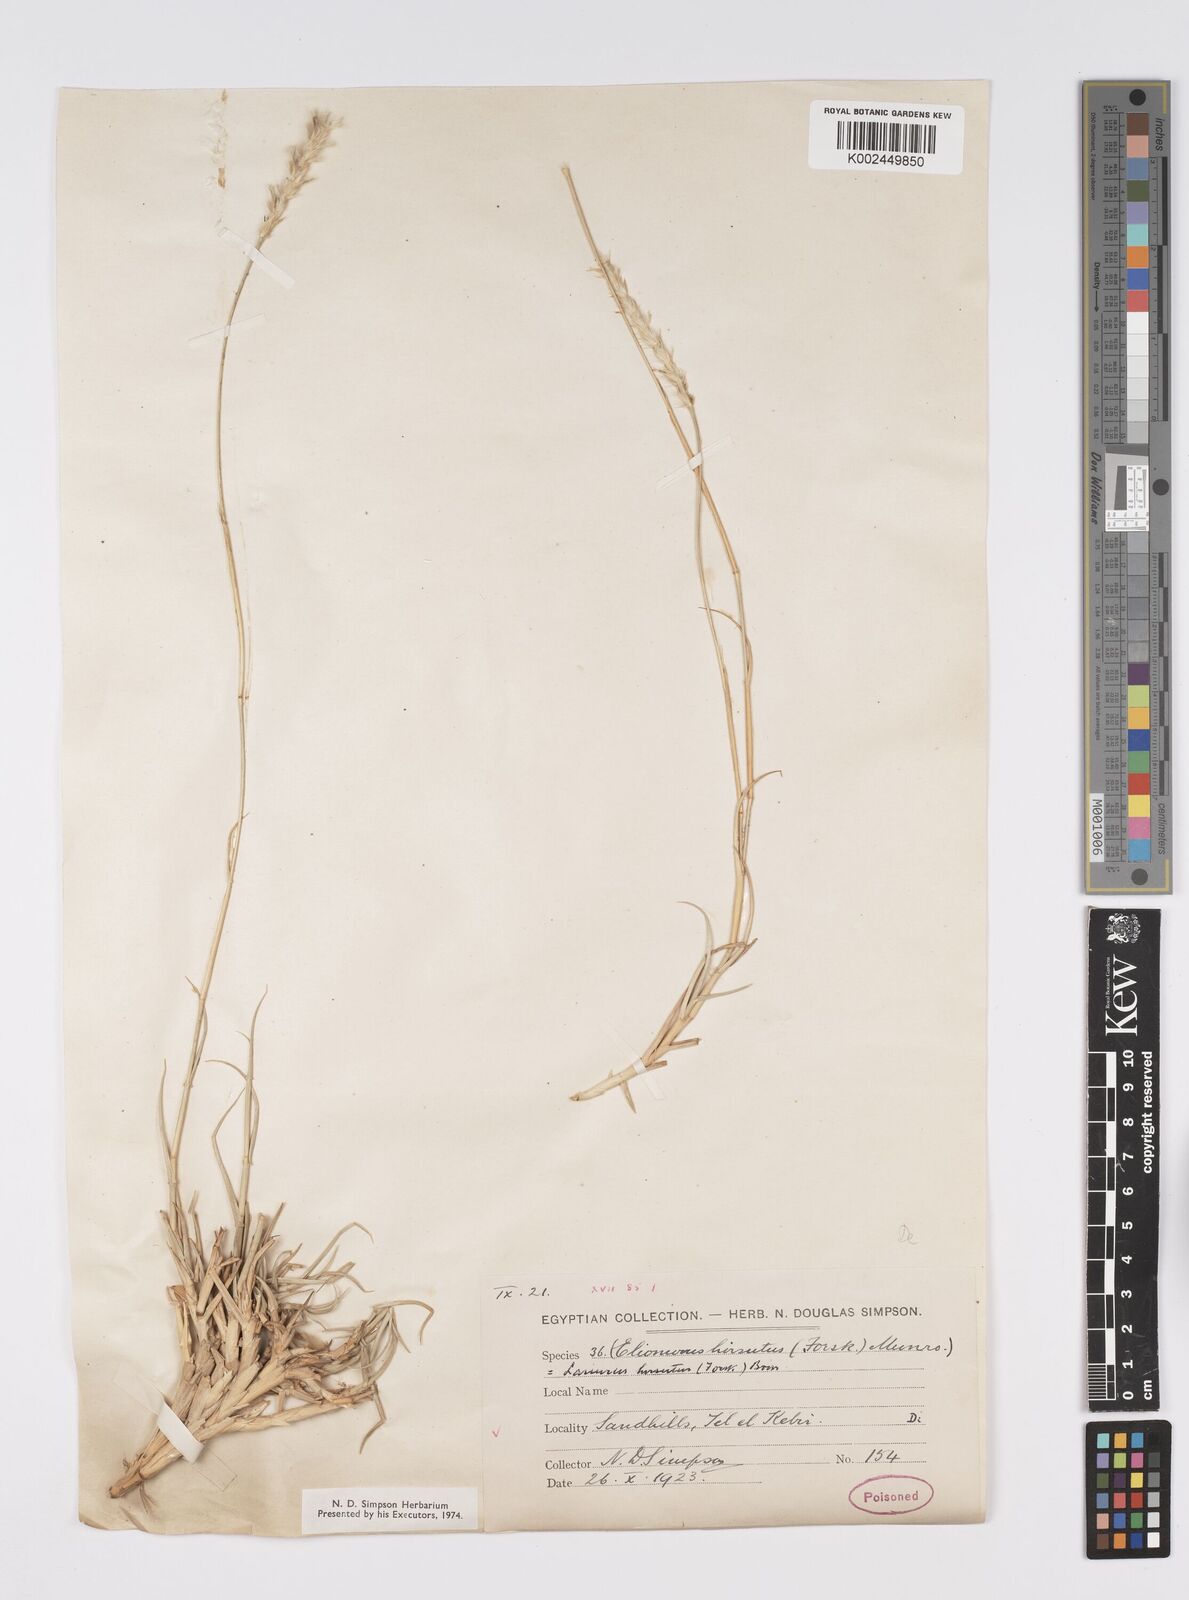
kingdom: Plantae
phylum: Tracheophyta
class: Liliopsida
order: Poales
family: Poaceae
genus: Lasiurus
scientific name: Lasiurus scindicus
